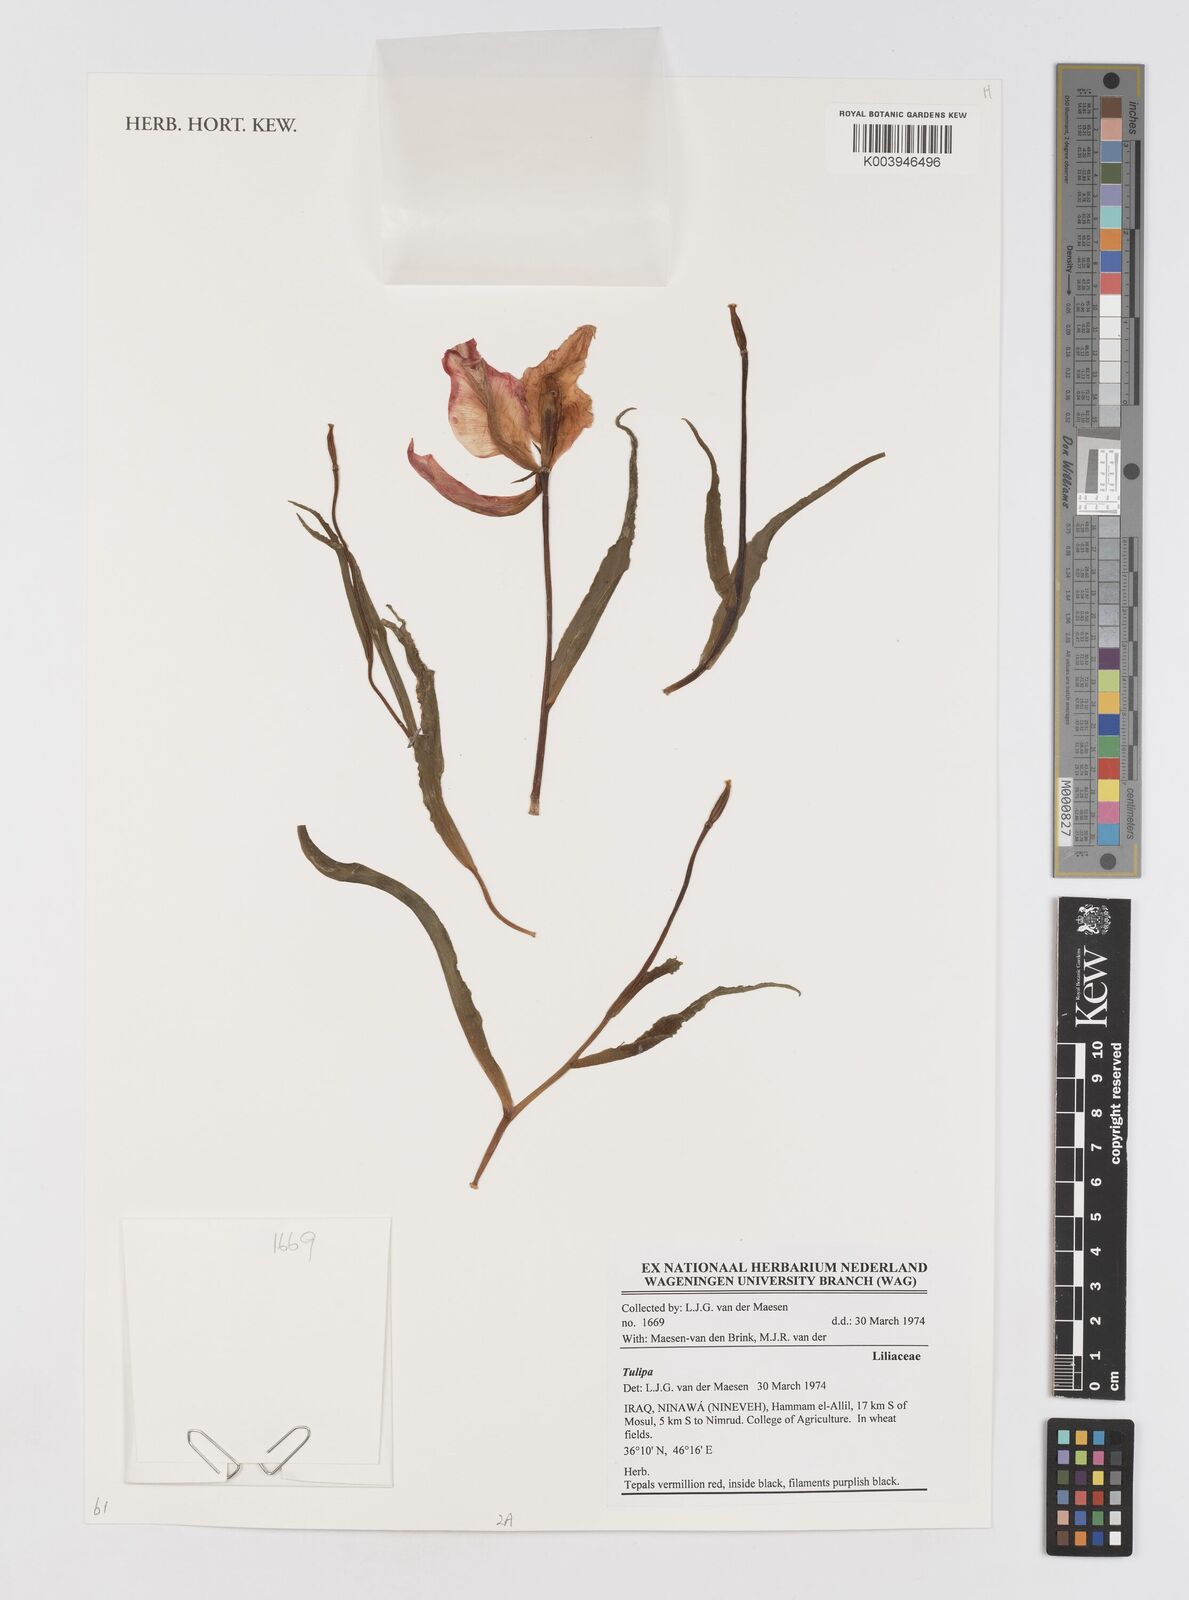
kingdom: Plantae
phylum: Tracheophyta
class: Liliopsida
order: Liliales
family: Liliaceae
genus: Tulipa
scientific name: Tulipa
